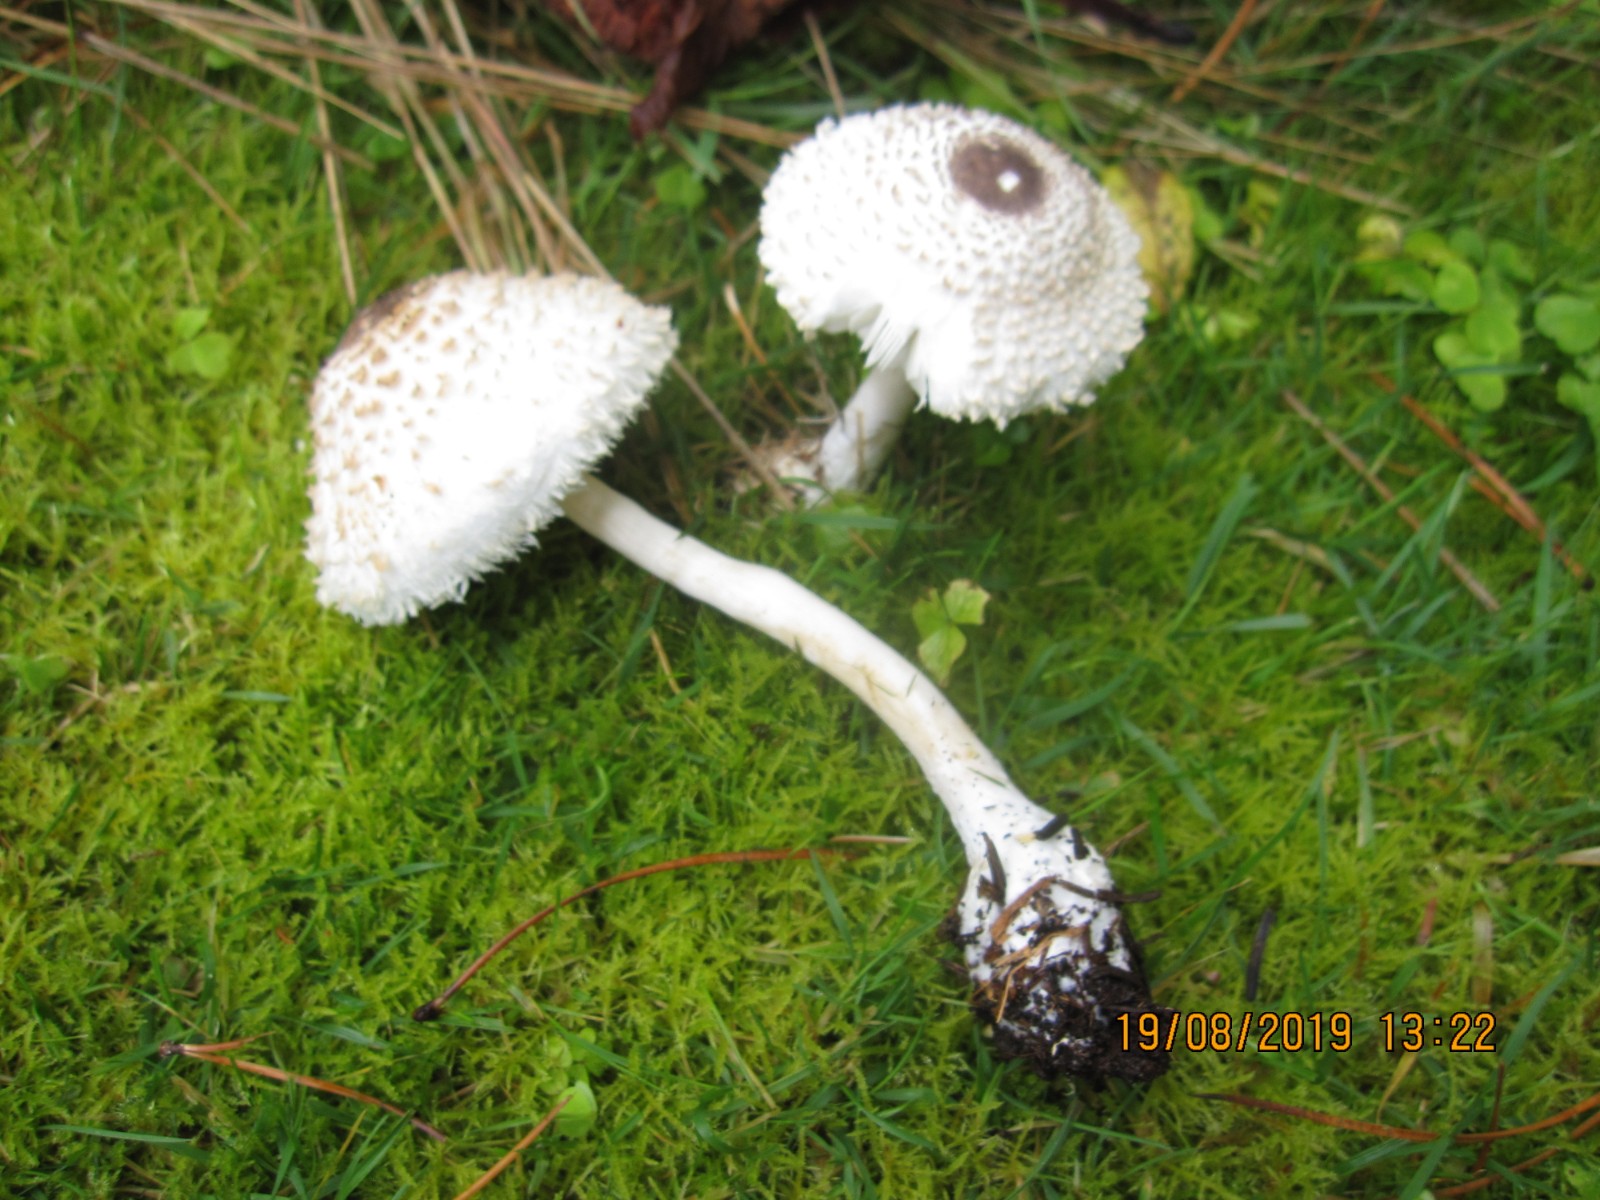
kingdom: Fungi
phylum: Basidiomycota
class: Agaricomycetes
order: Agaricales
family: Agaricaceae
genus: Leucoagaricus
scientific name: Leucoagaricus nympharum
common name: gran-silkehat
